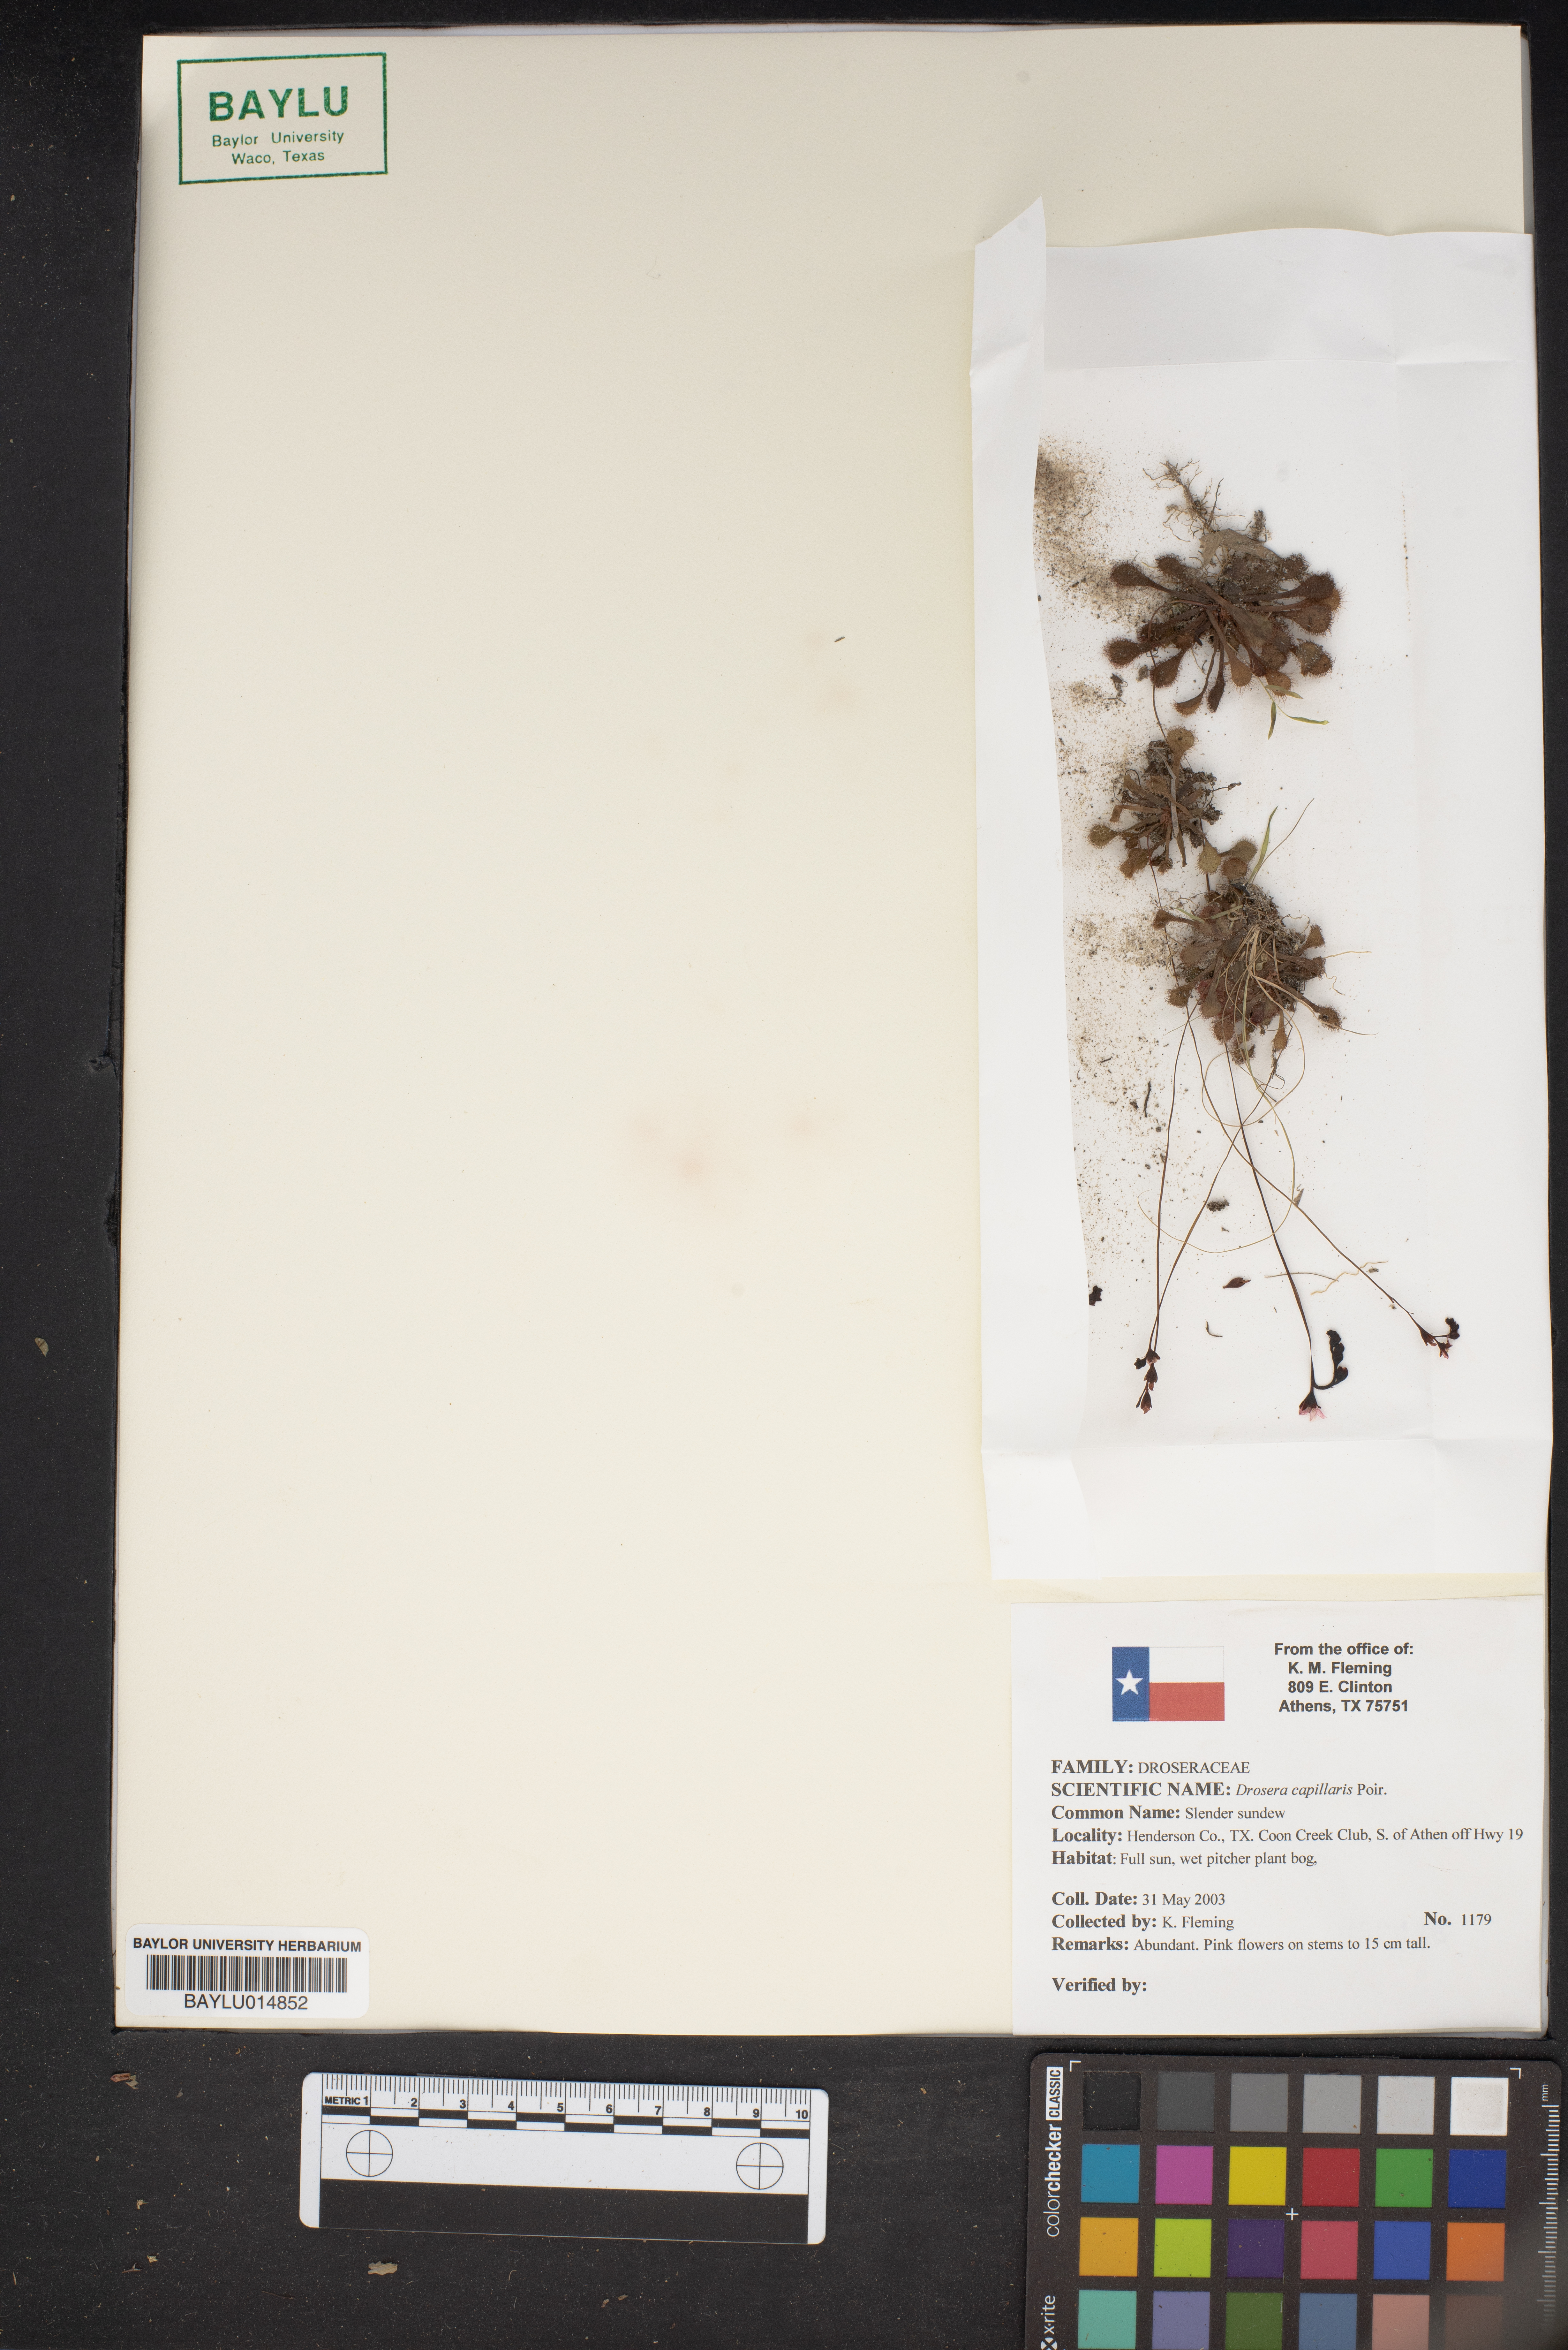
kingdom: Plantae
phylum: Tracheophyta
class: Magnoliopsida
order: Caryophyllales
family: Droseraceae
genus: Drosera
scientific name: Drosera capillaris
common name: Pink sundew
